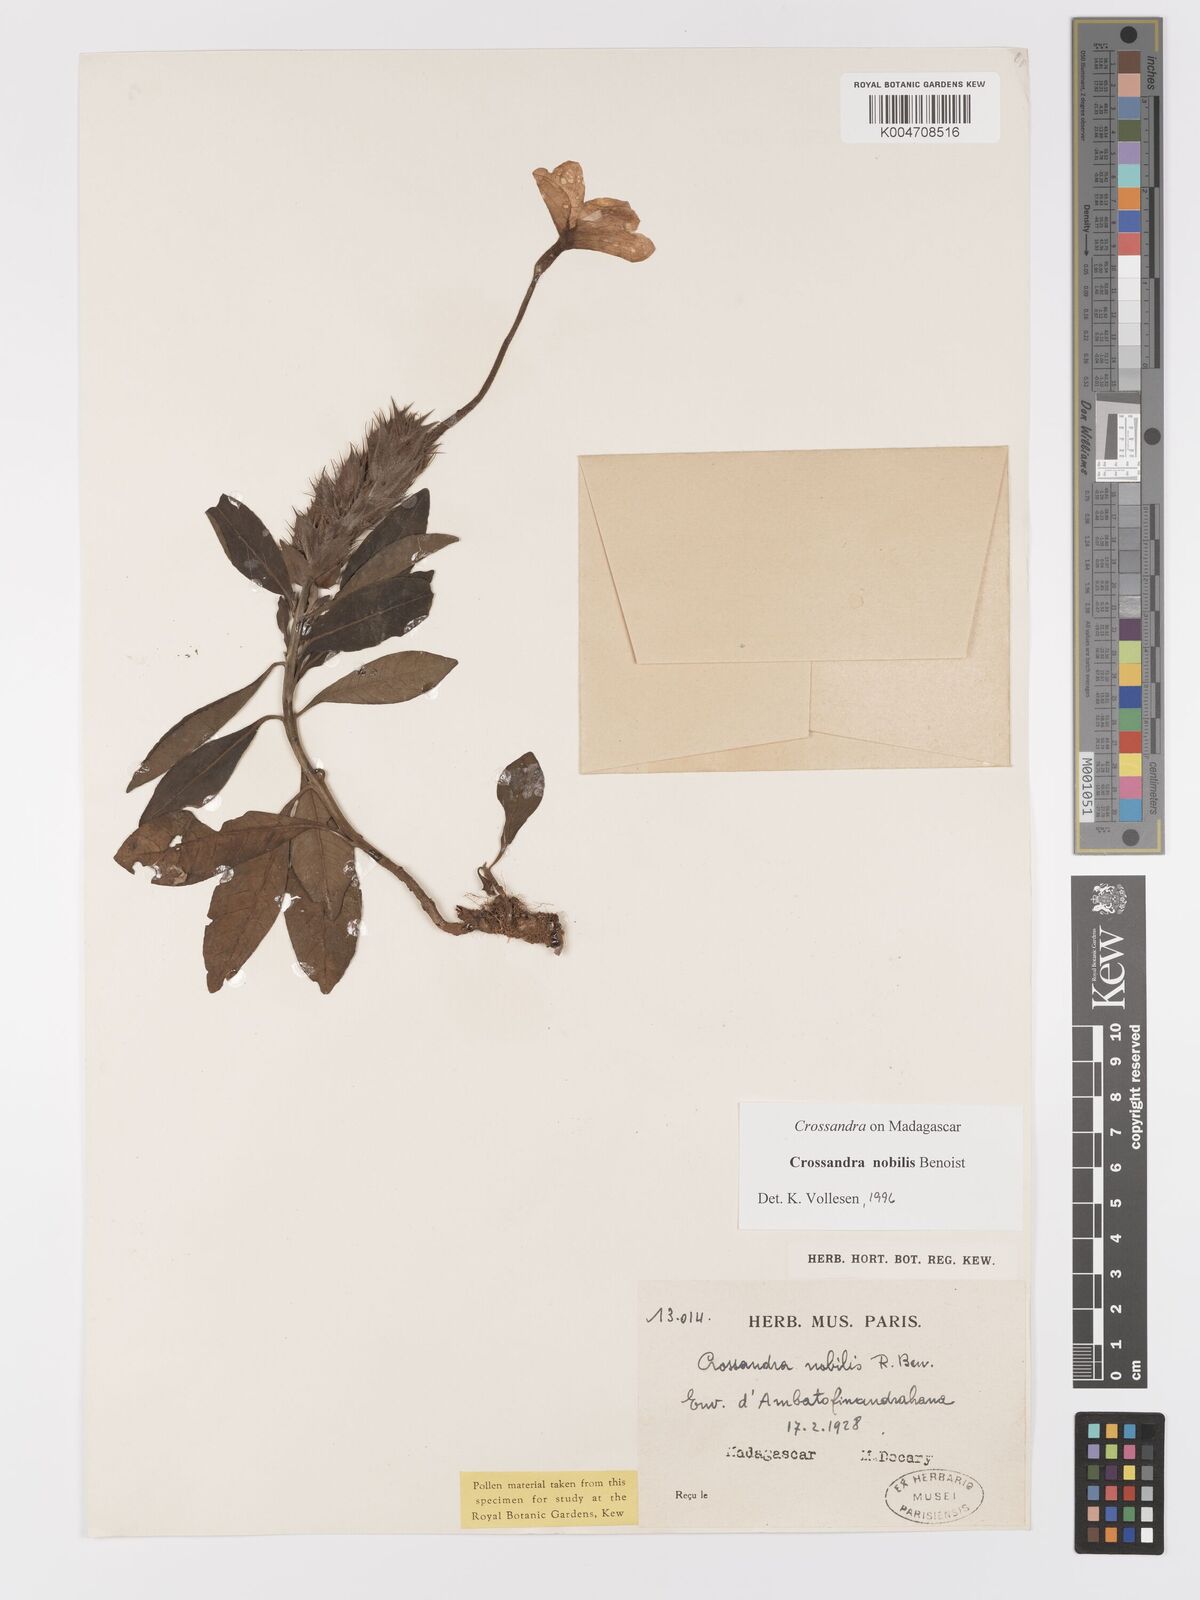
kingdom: Plantae
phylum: Tracheophyta
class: Magnoliopsida
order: Lamiales
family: Acanthaceae
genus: Crossandra
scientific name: Crossandra nobilis
